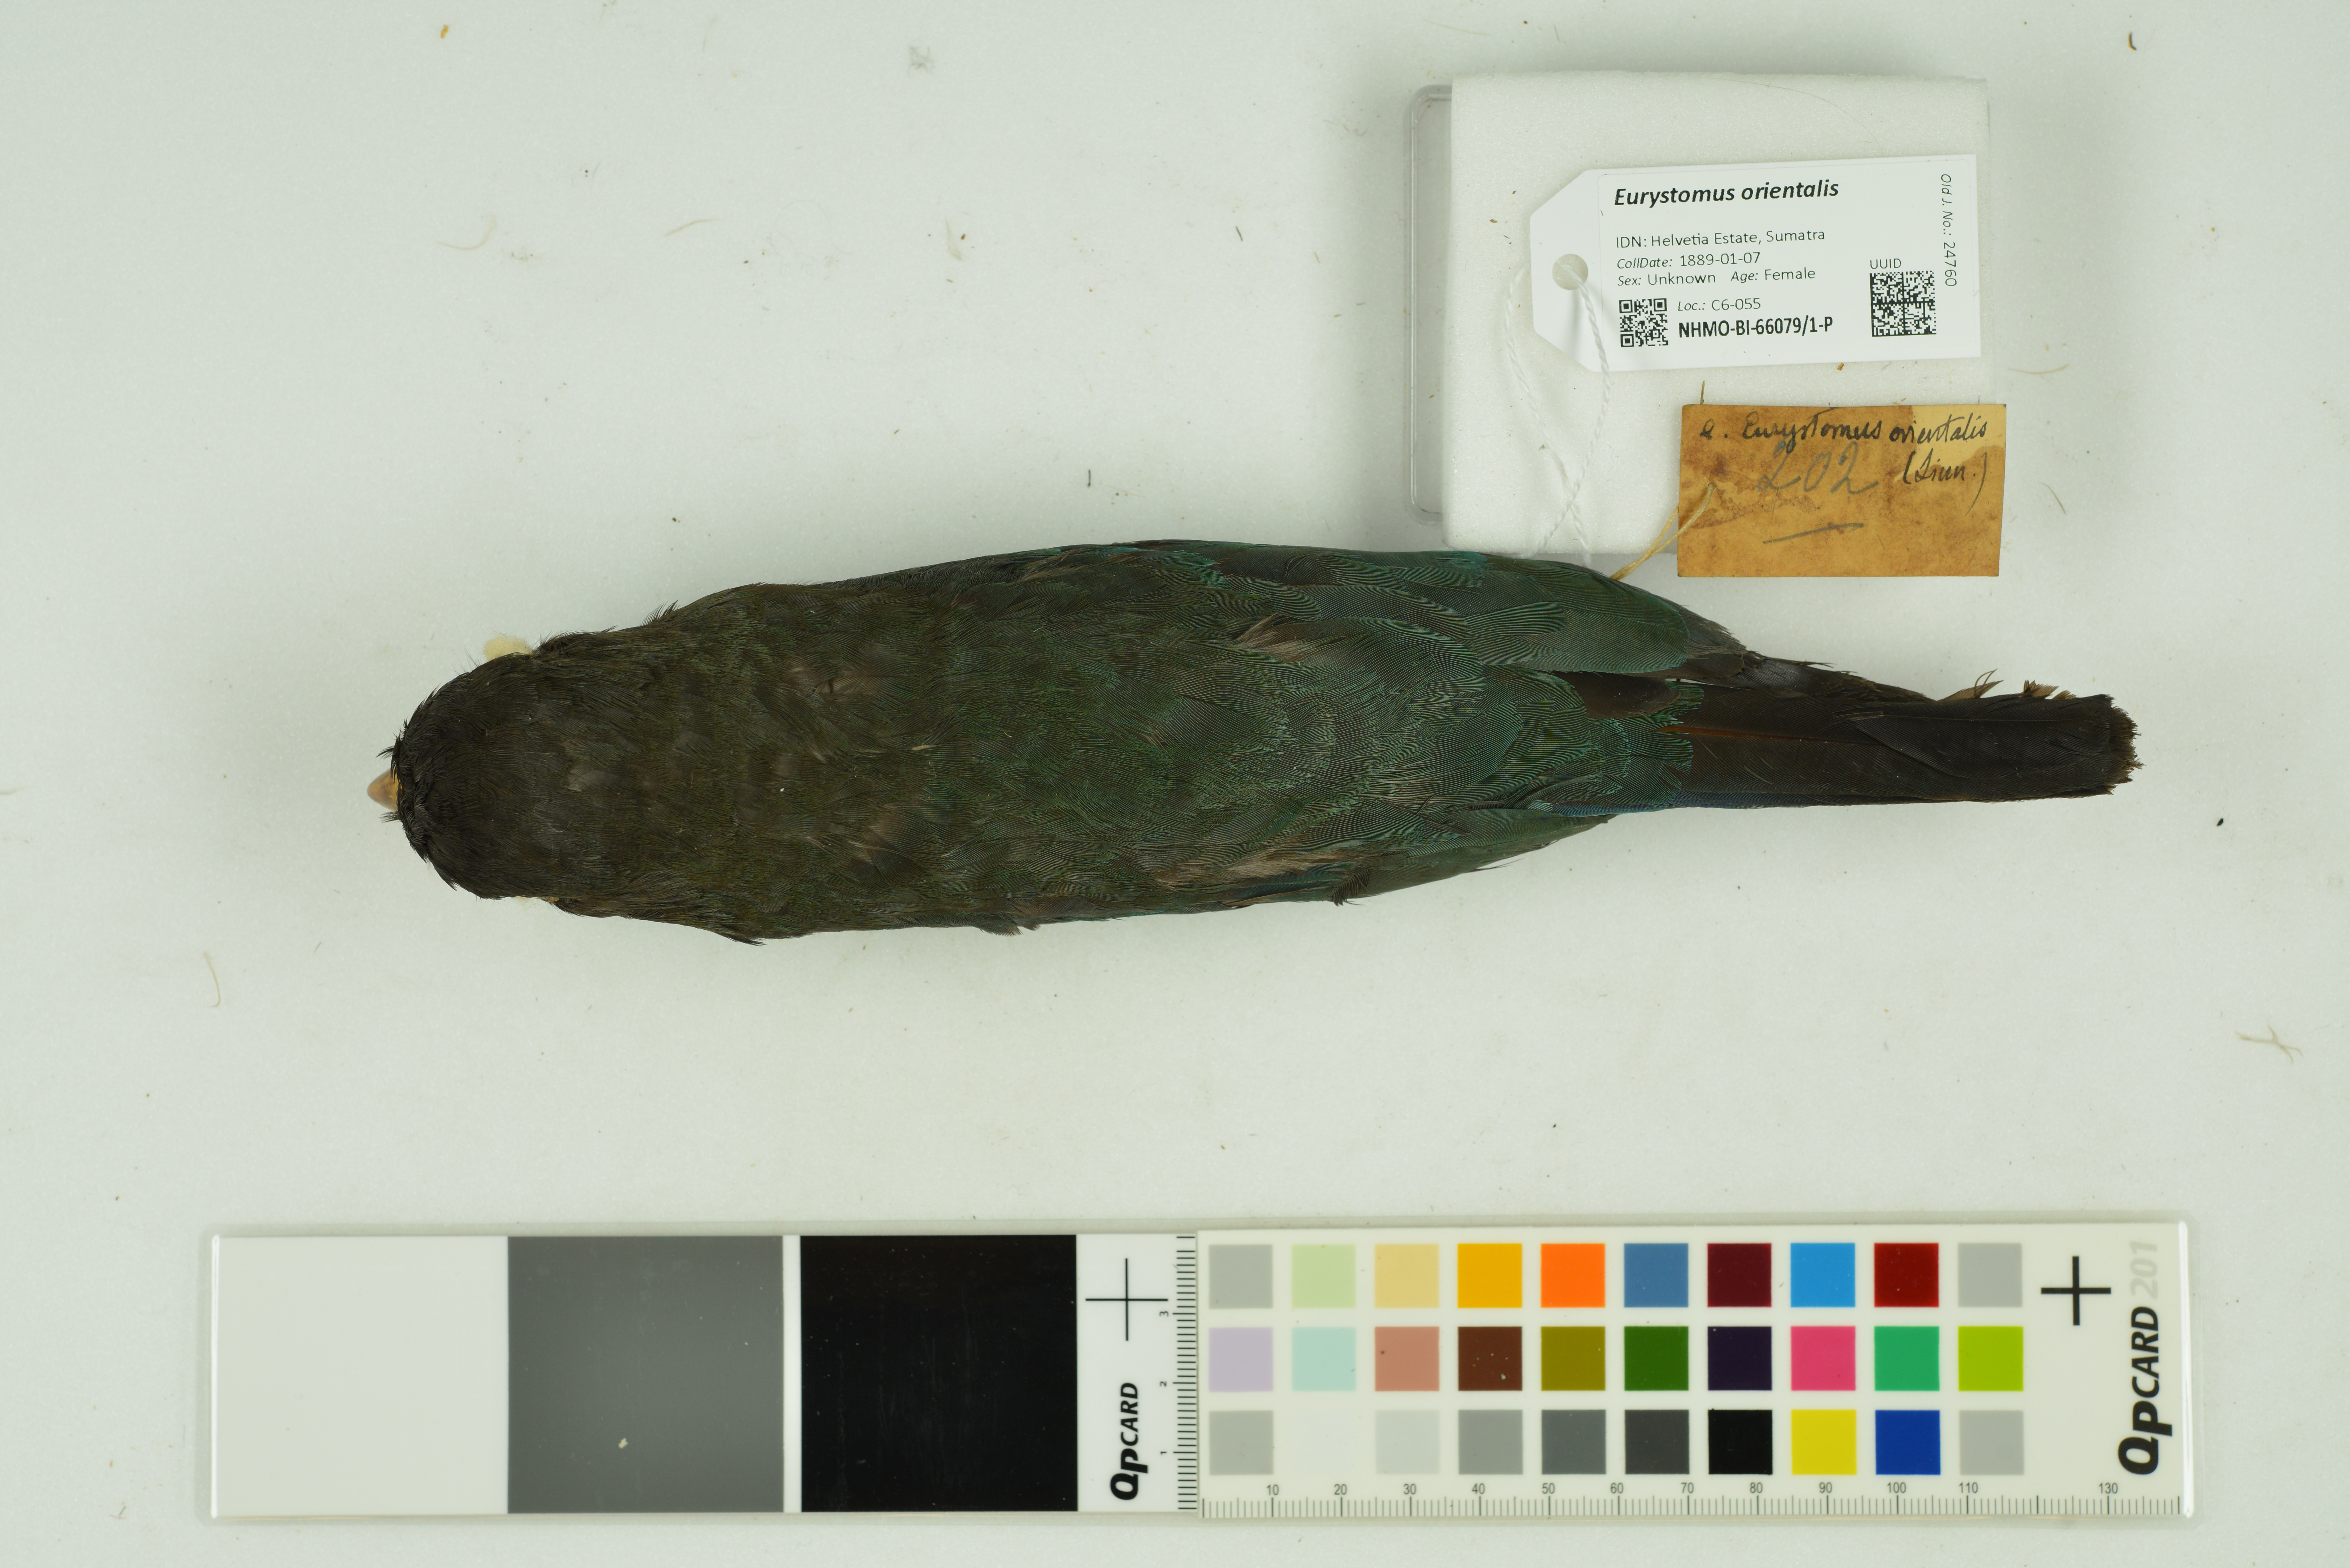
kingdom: Animalia
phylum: Chordata
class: Aves
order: Coraciiformes
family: Coraciidae
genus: Eurystomus
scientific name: Eurystomus orientalis
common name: Oriental dollarbird
